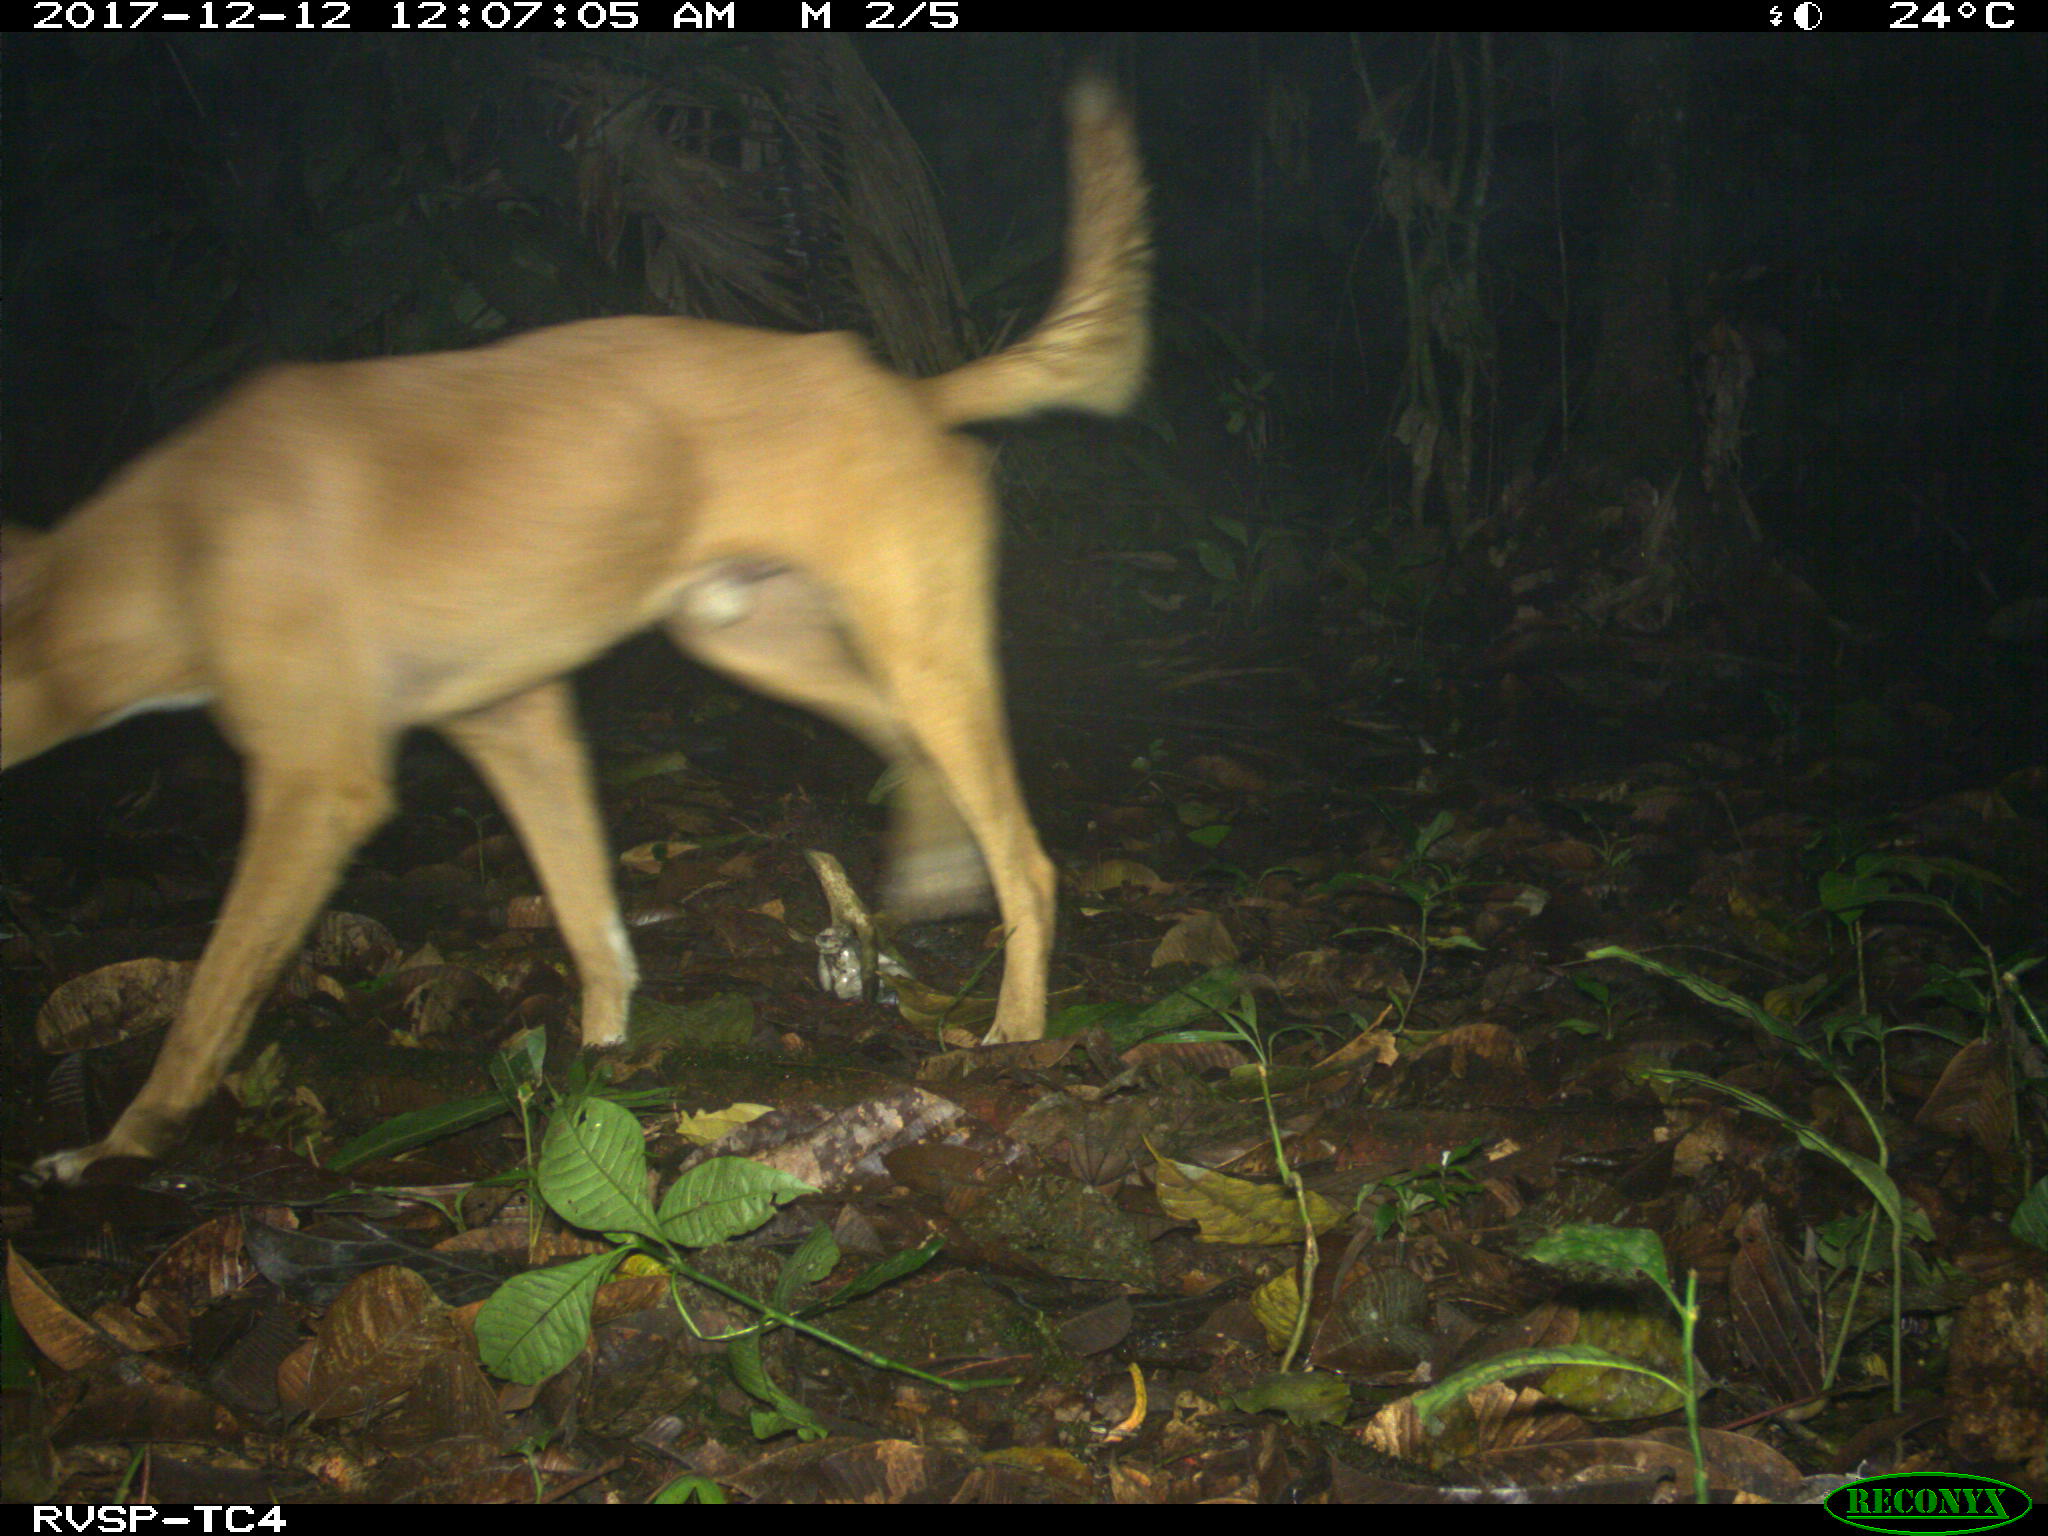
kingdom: Animalia
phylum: Chordata
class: Mammalia
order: Carnivora
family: Canidae
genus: Canis
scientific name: Canis lupus
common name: Gray wolf
